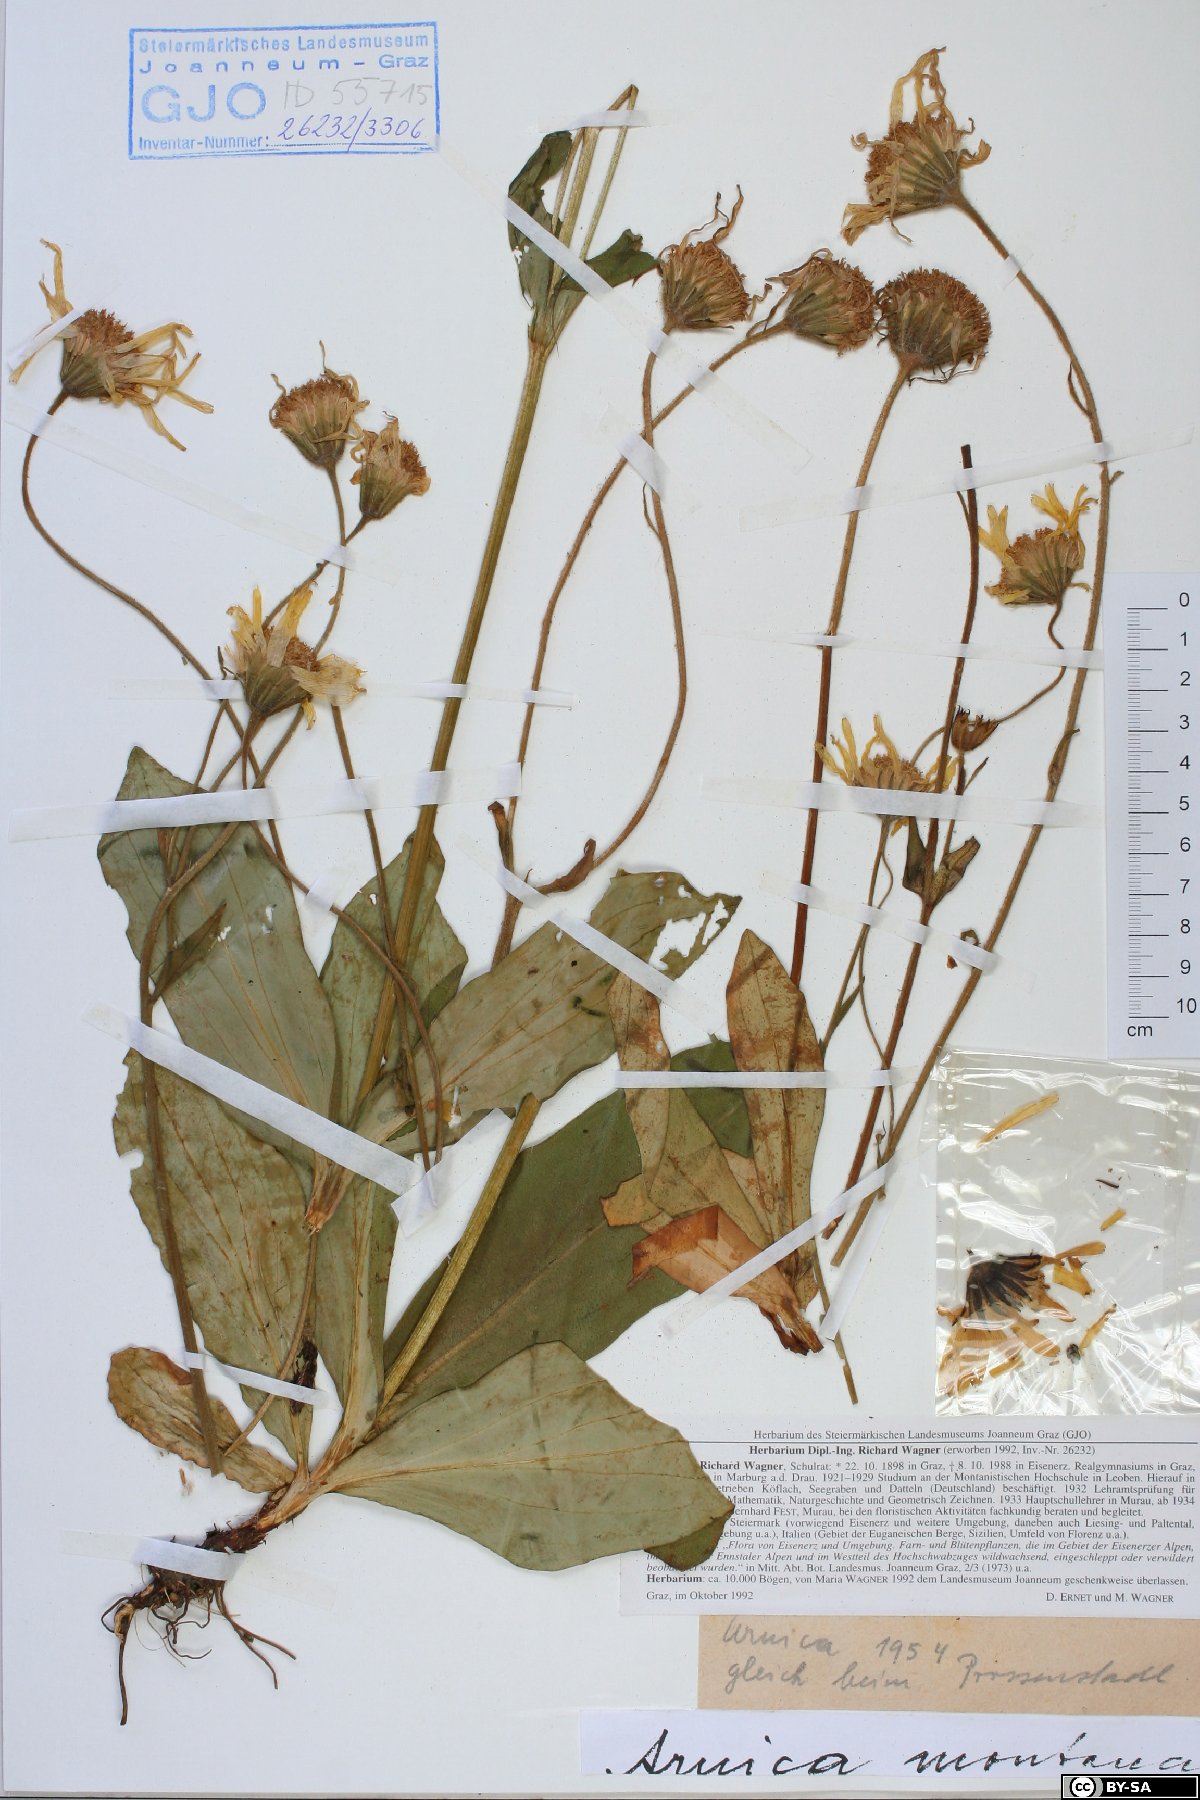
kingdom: Plantae
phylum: Tracheophyta
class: Magnoliopsida
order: Asterales
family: Asteraceae
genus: Arnica
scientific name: Arnica montana
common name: Leopard's bane
